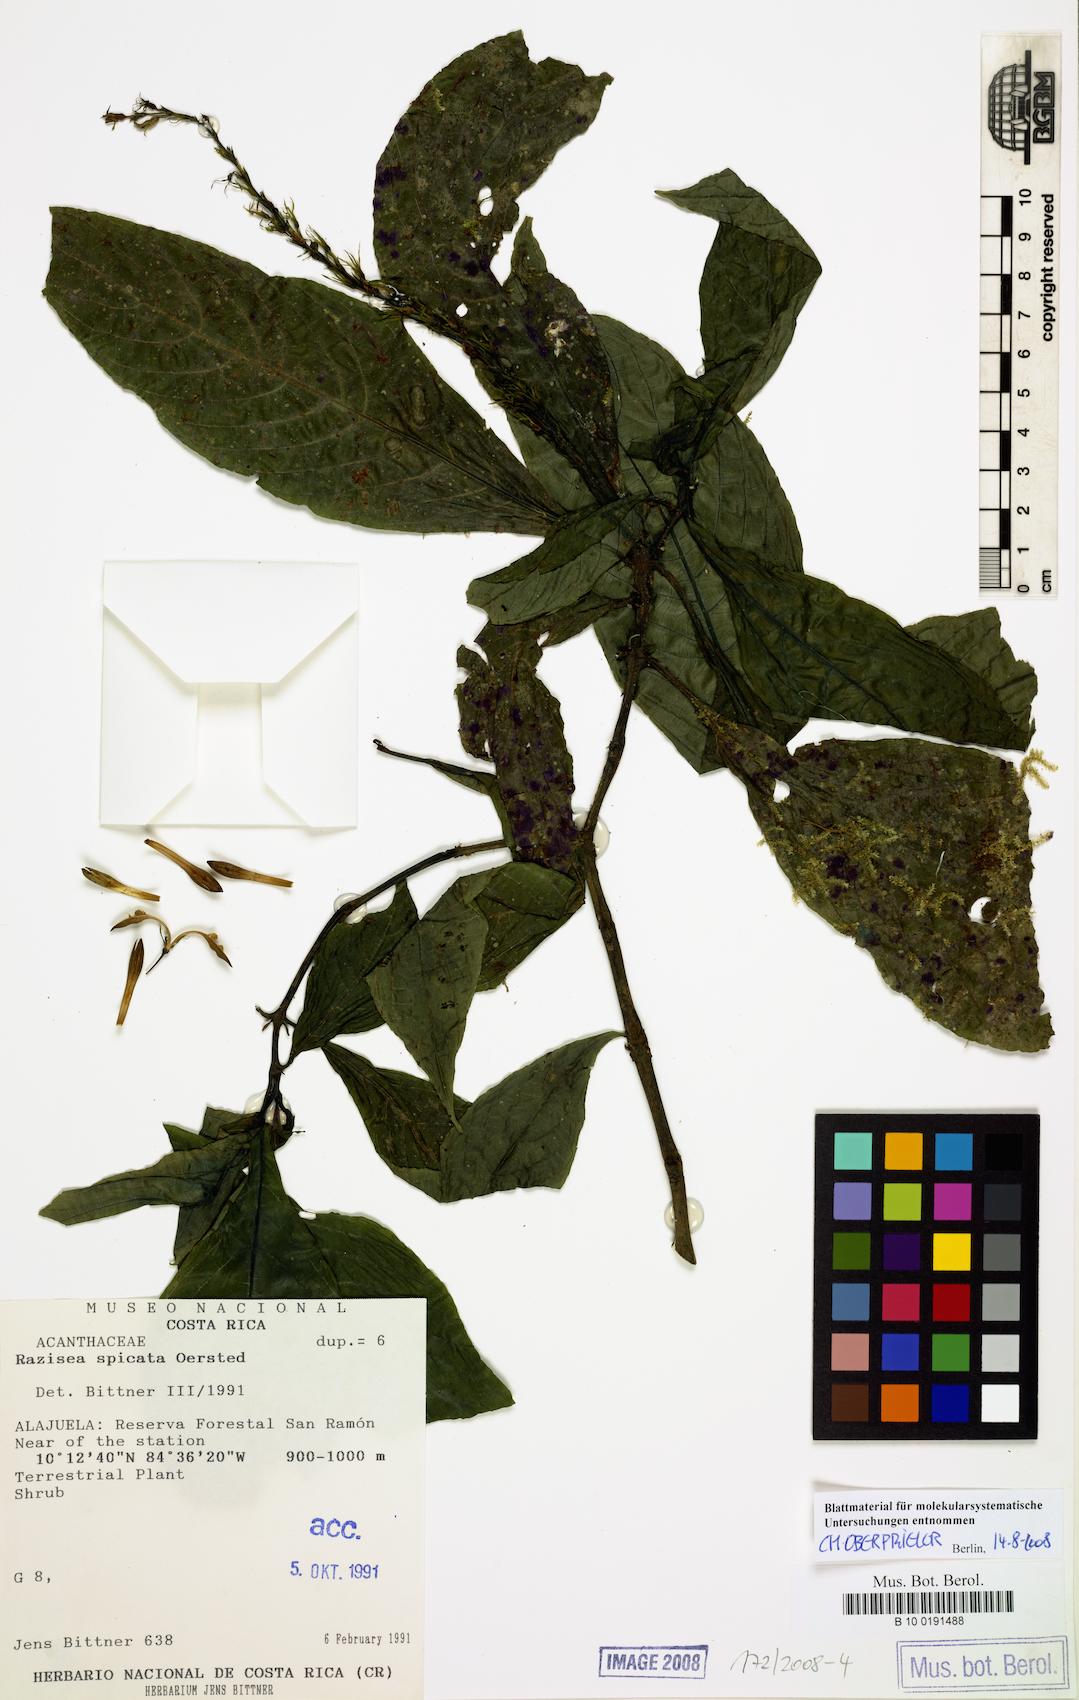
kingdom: Plantae
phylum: Tracheophyta
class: Magnoliopsida
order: Lamiales
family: Acanthaceae
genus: Stenostephanus
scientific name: Stenostephanus leiorhachis
